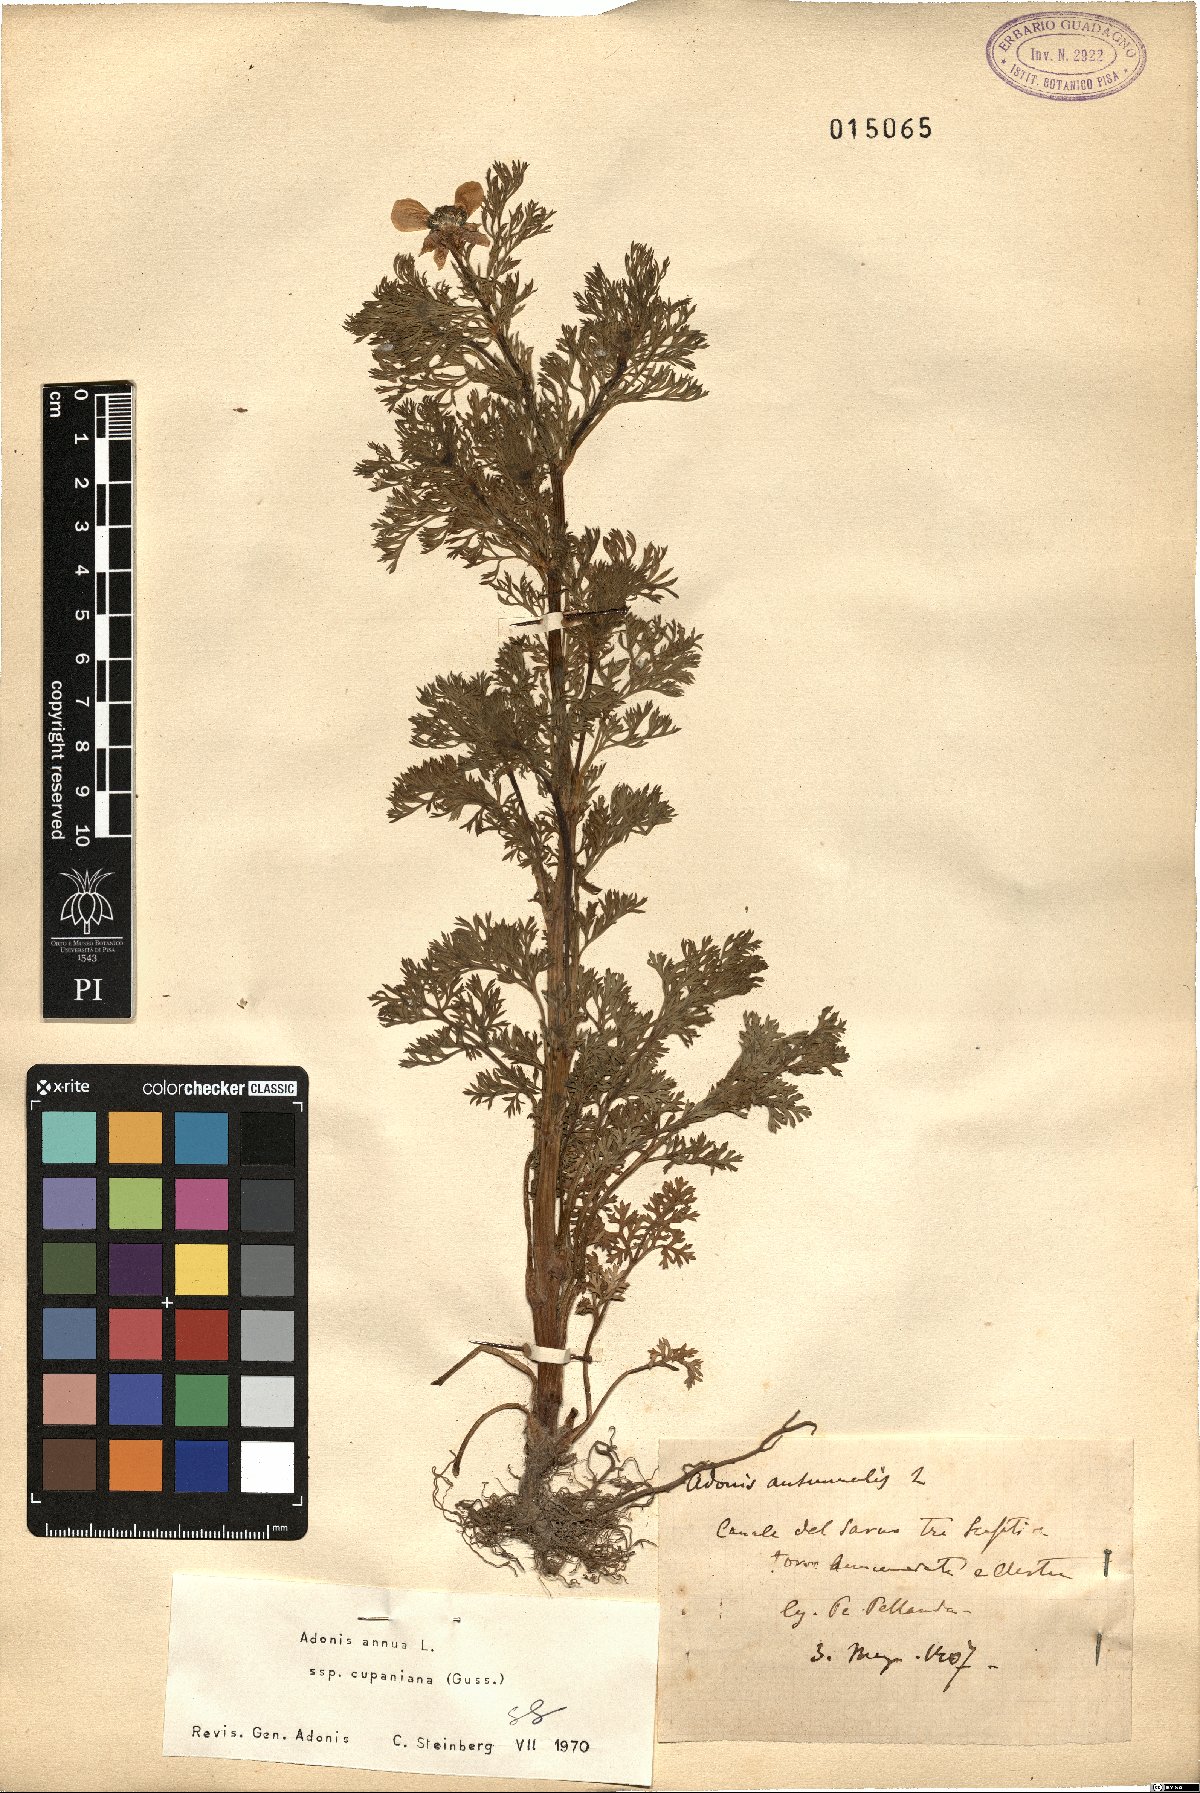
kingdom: Plantae
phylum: Tracheophyta
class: Magnoliopsida
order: Ranunculales
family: Ranunculaceae
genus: Adonis
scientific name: Adonis annua
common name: Pheasant's-eye
